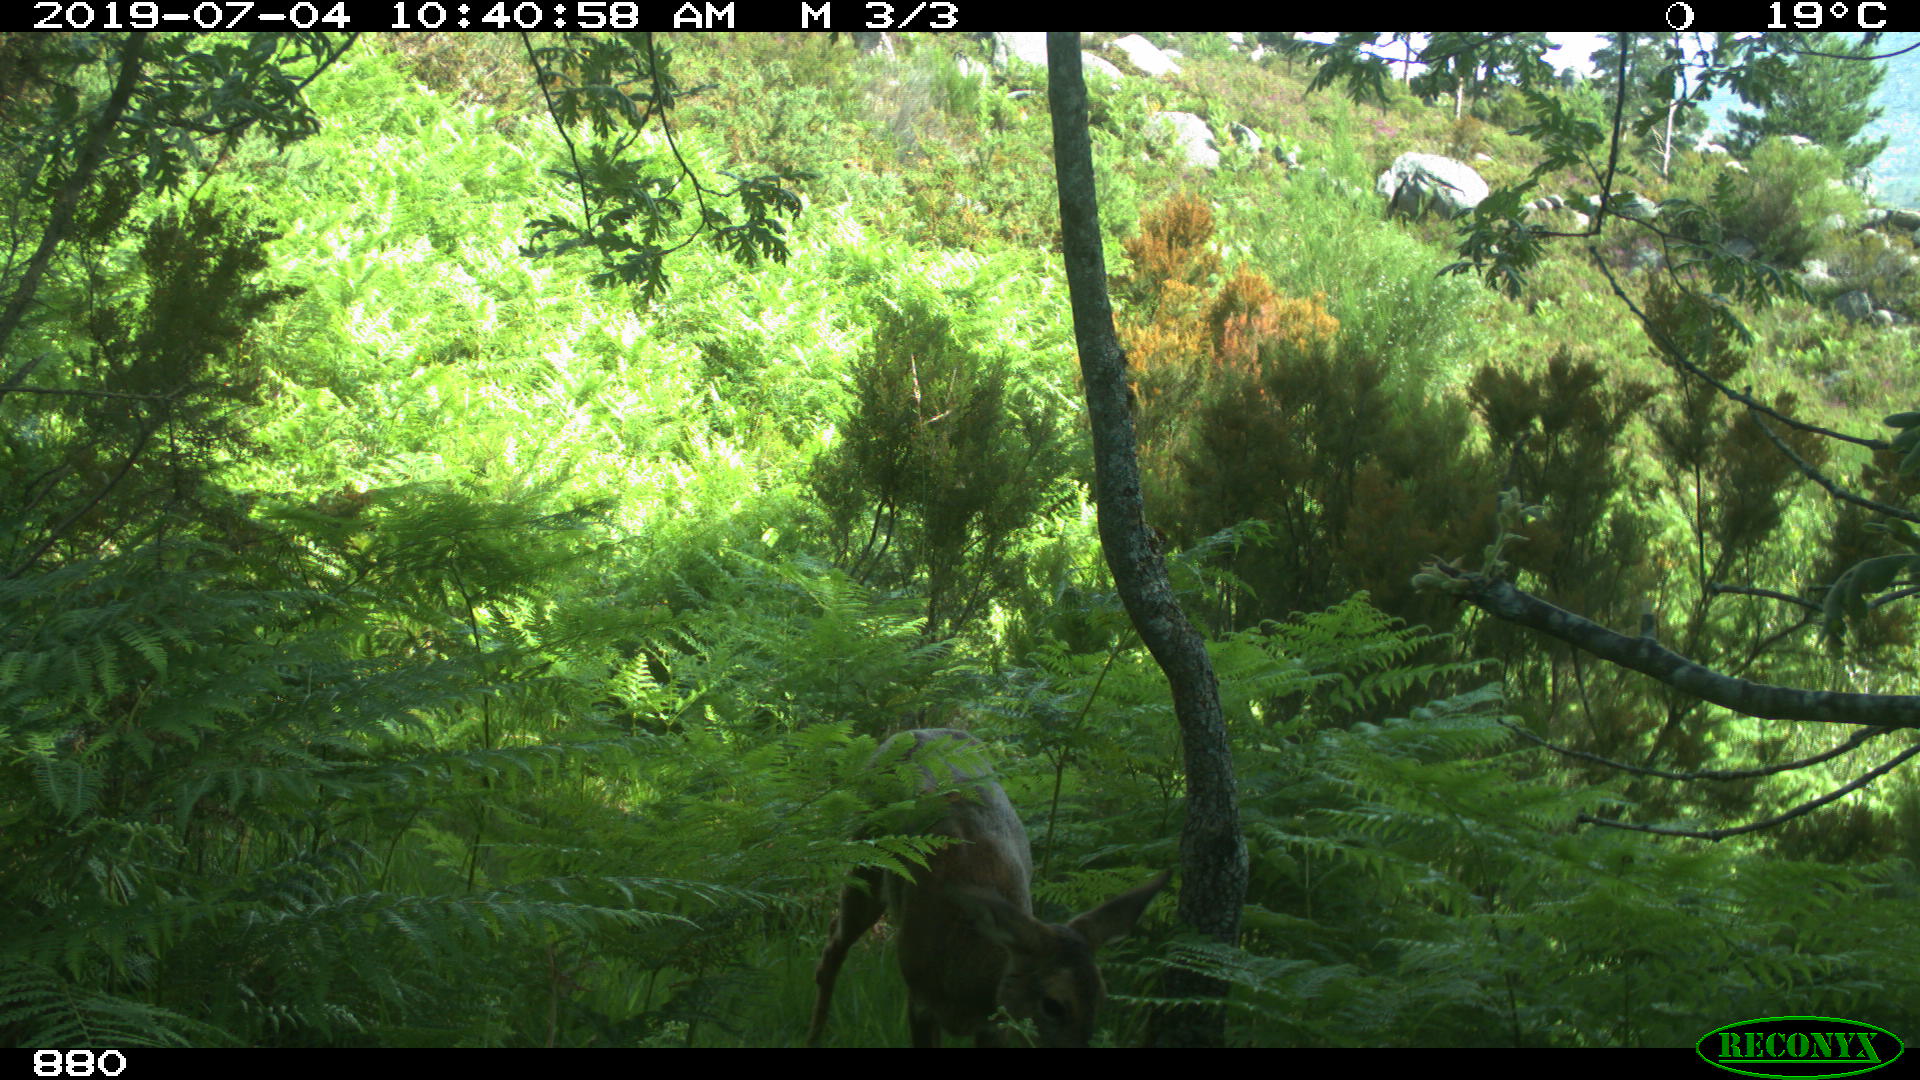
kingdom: Animalia
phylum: Chordata
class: Mammalia
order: Artiodactyla
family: Cervidae
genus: Capreolus
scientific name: Capreolus capreolus
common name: Western roe deer
